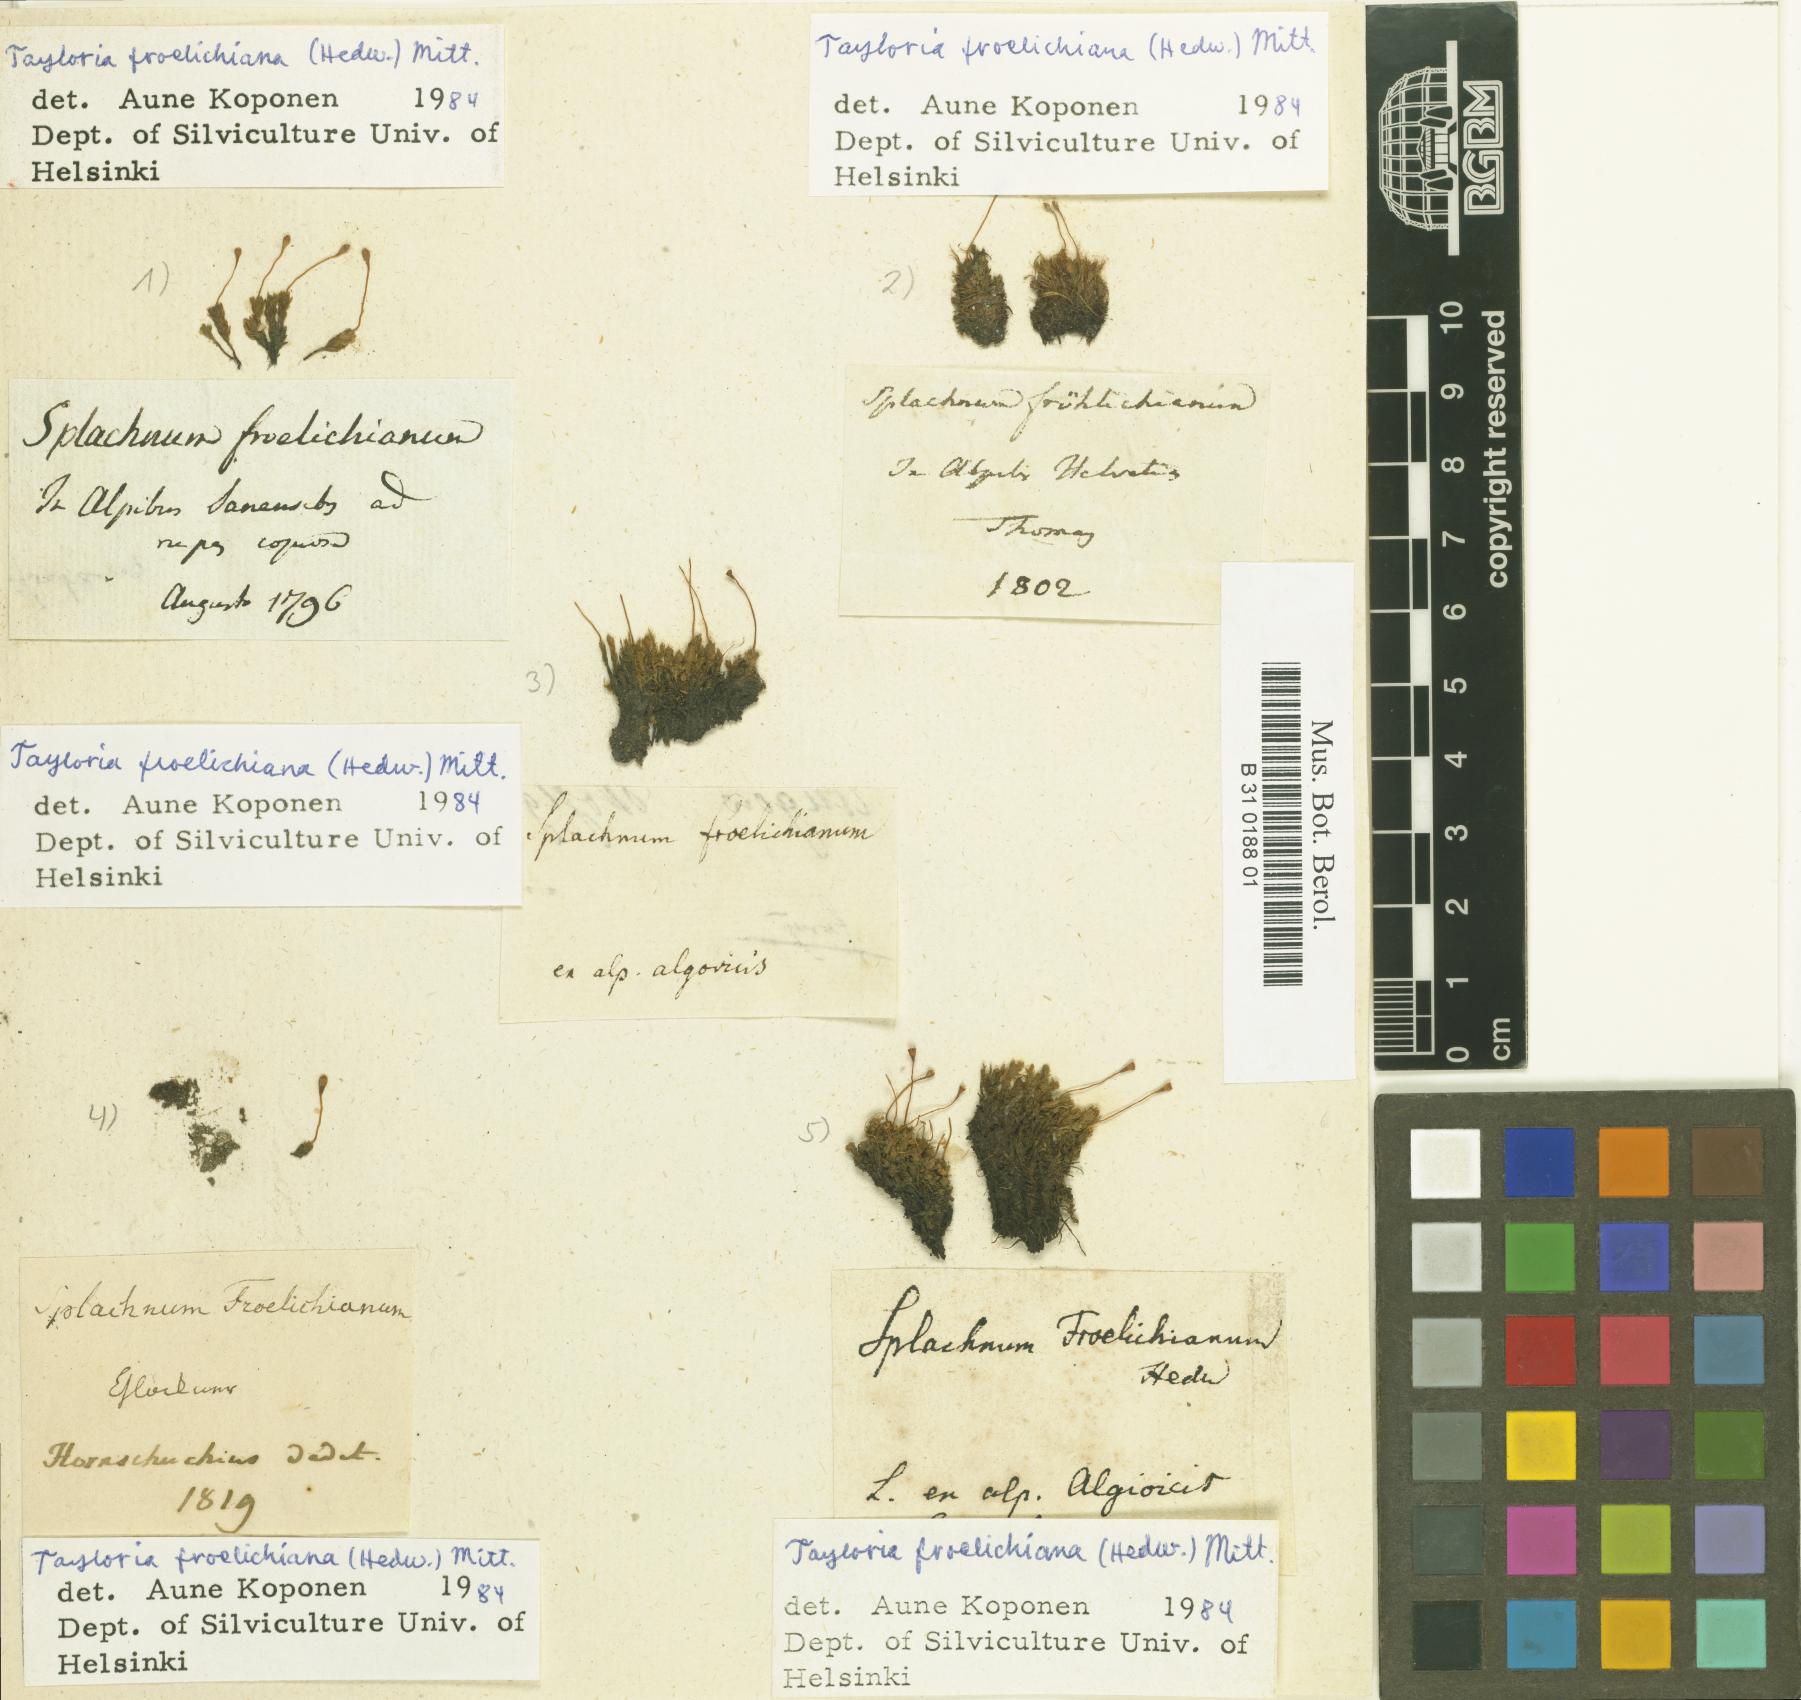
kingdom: Plantae
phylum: Bryophyta
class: Bryopsida
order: Splachnales
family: Splachnaceae
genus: Tayloria
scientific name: Tayloria froelichiana
